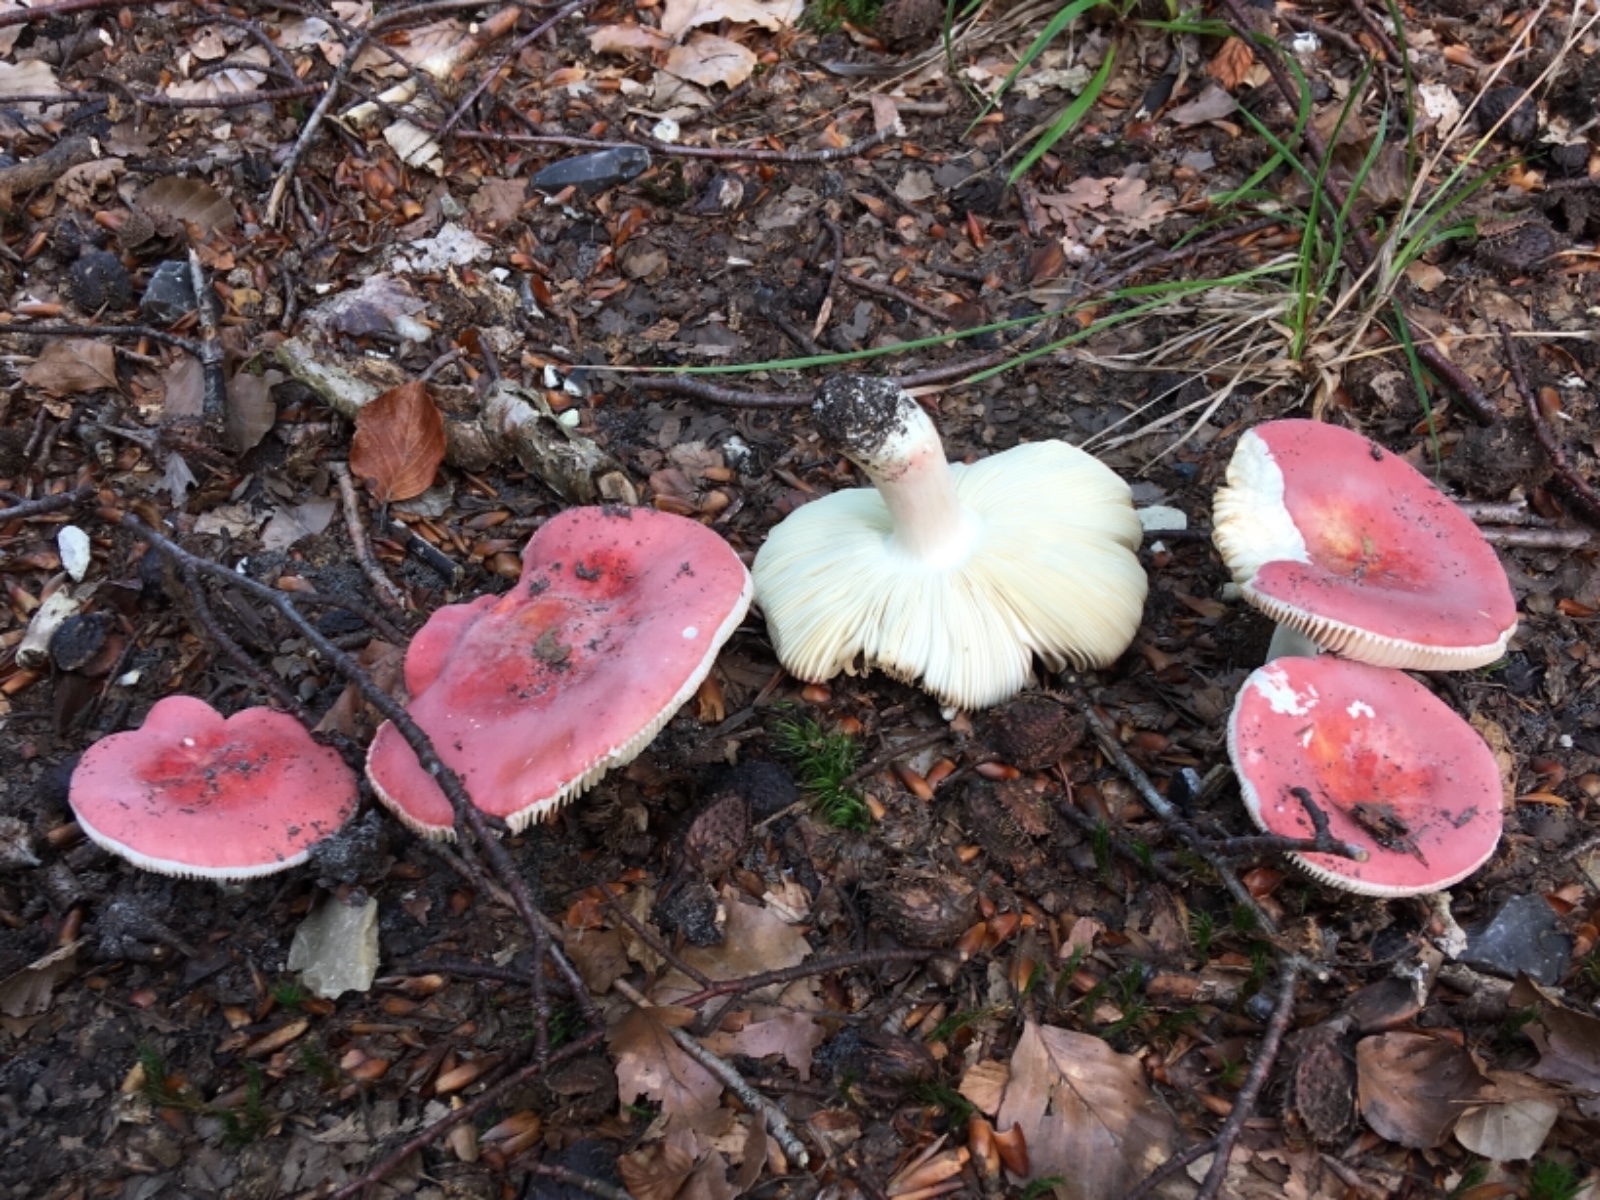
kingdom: Fungi
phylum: Basidiomycota
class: Agaricomycetes
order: Russulales
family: Russulaceae
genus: Russula
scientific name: Russula rosea
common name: fastkødet skørhat
